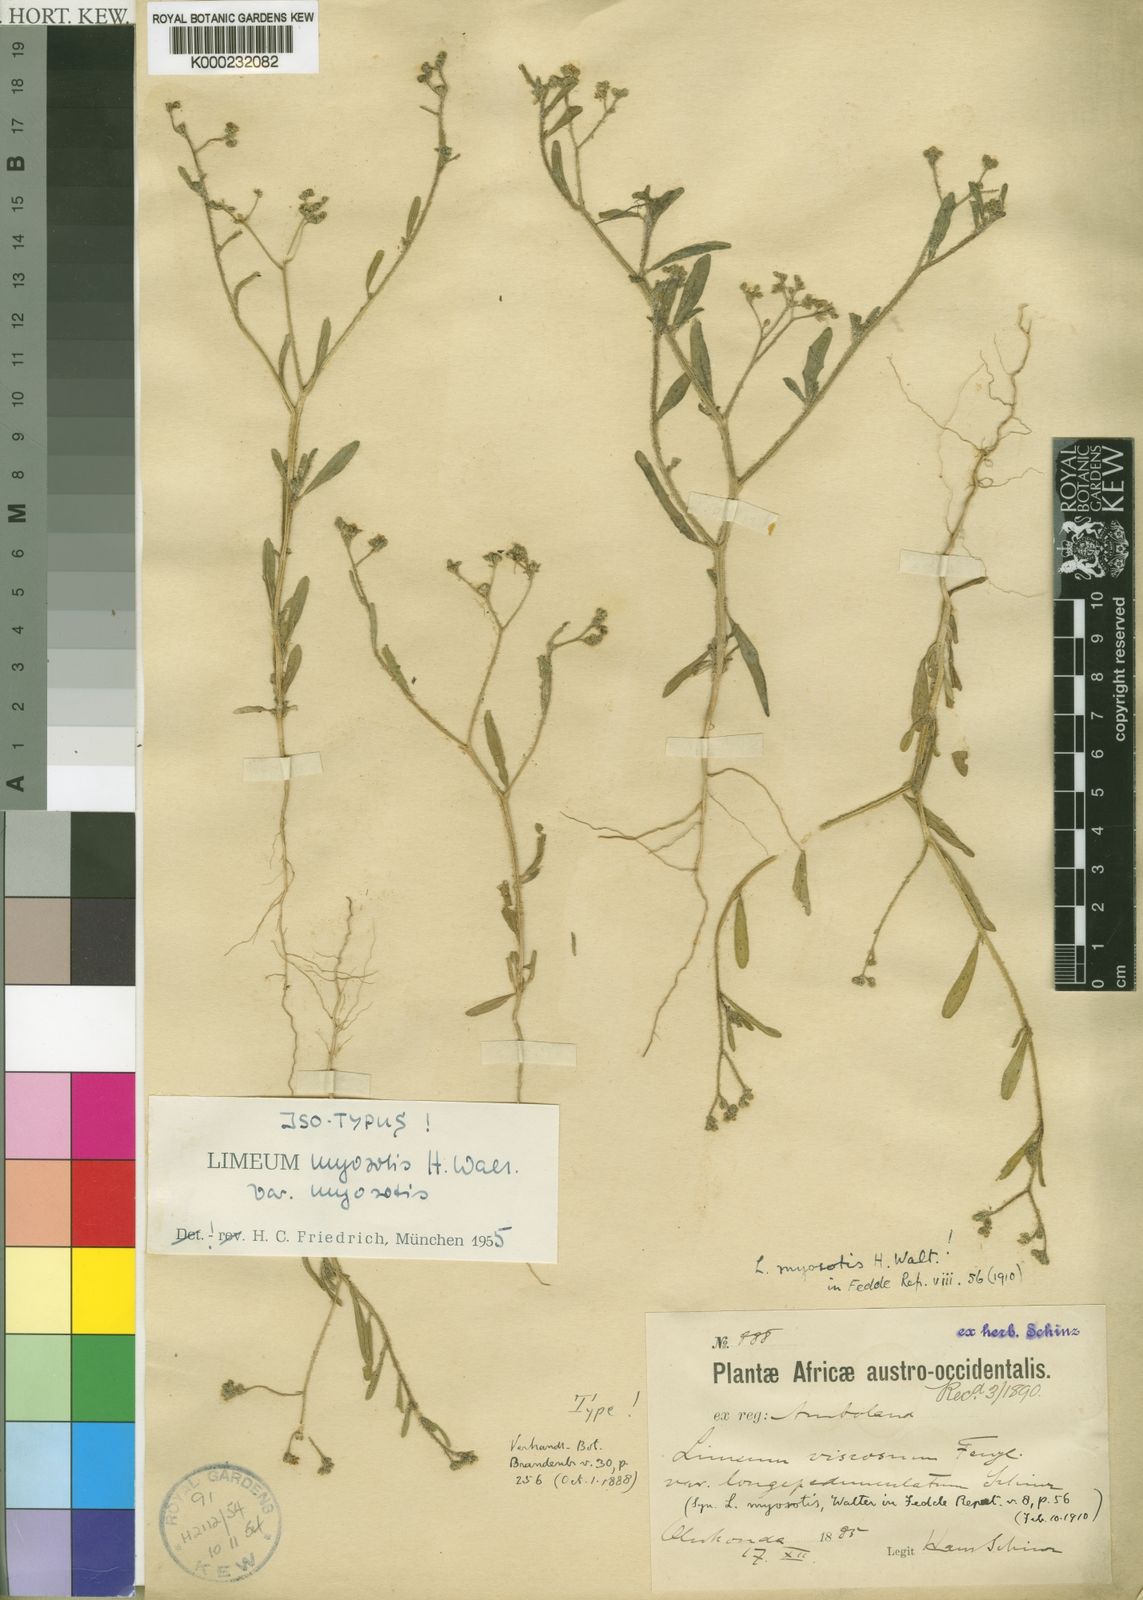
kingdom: Plantae
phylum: Tracheophyta
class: Magnoliopsida
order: Caryophyllales
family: Limeaceae
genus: Limeum
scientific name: Limeum myosotis
